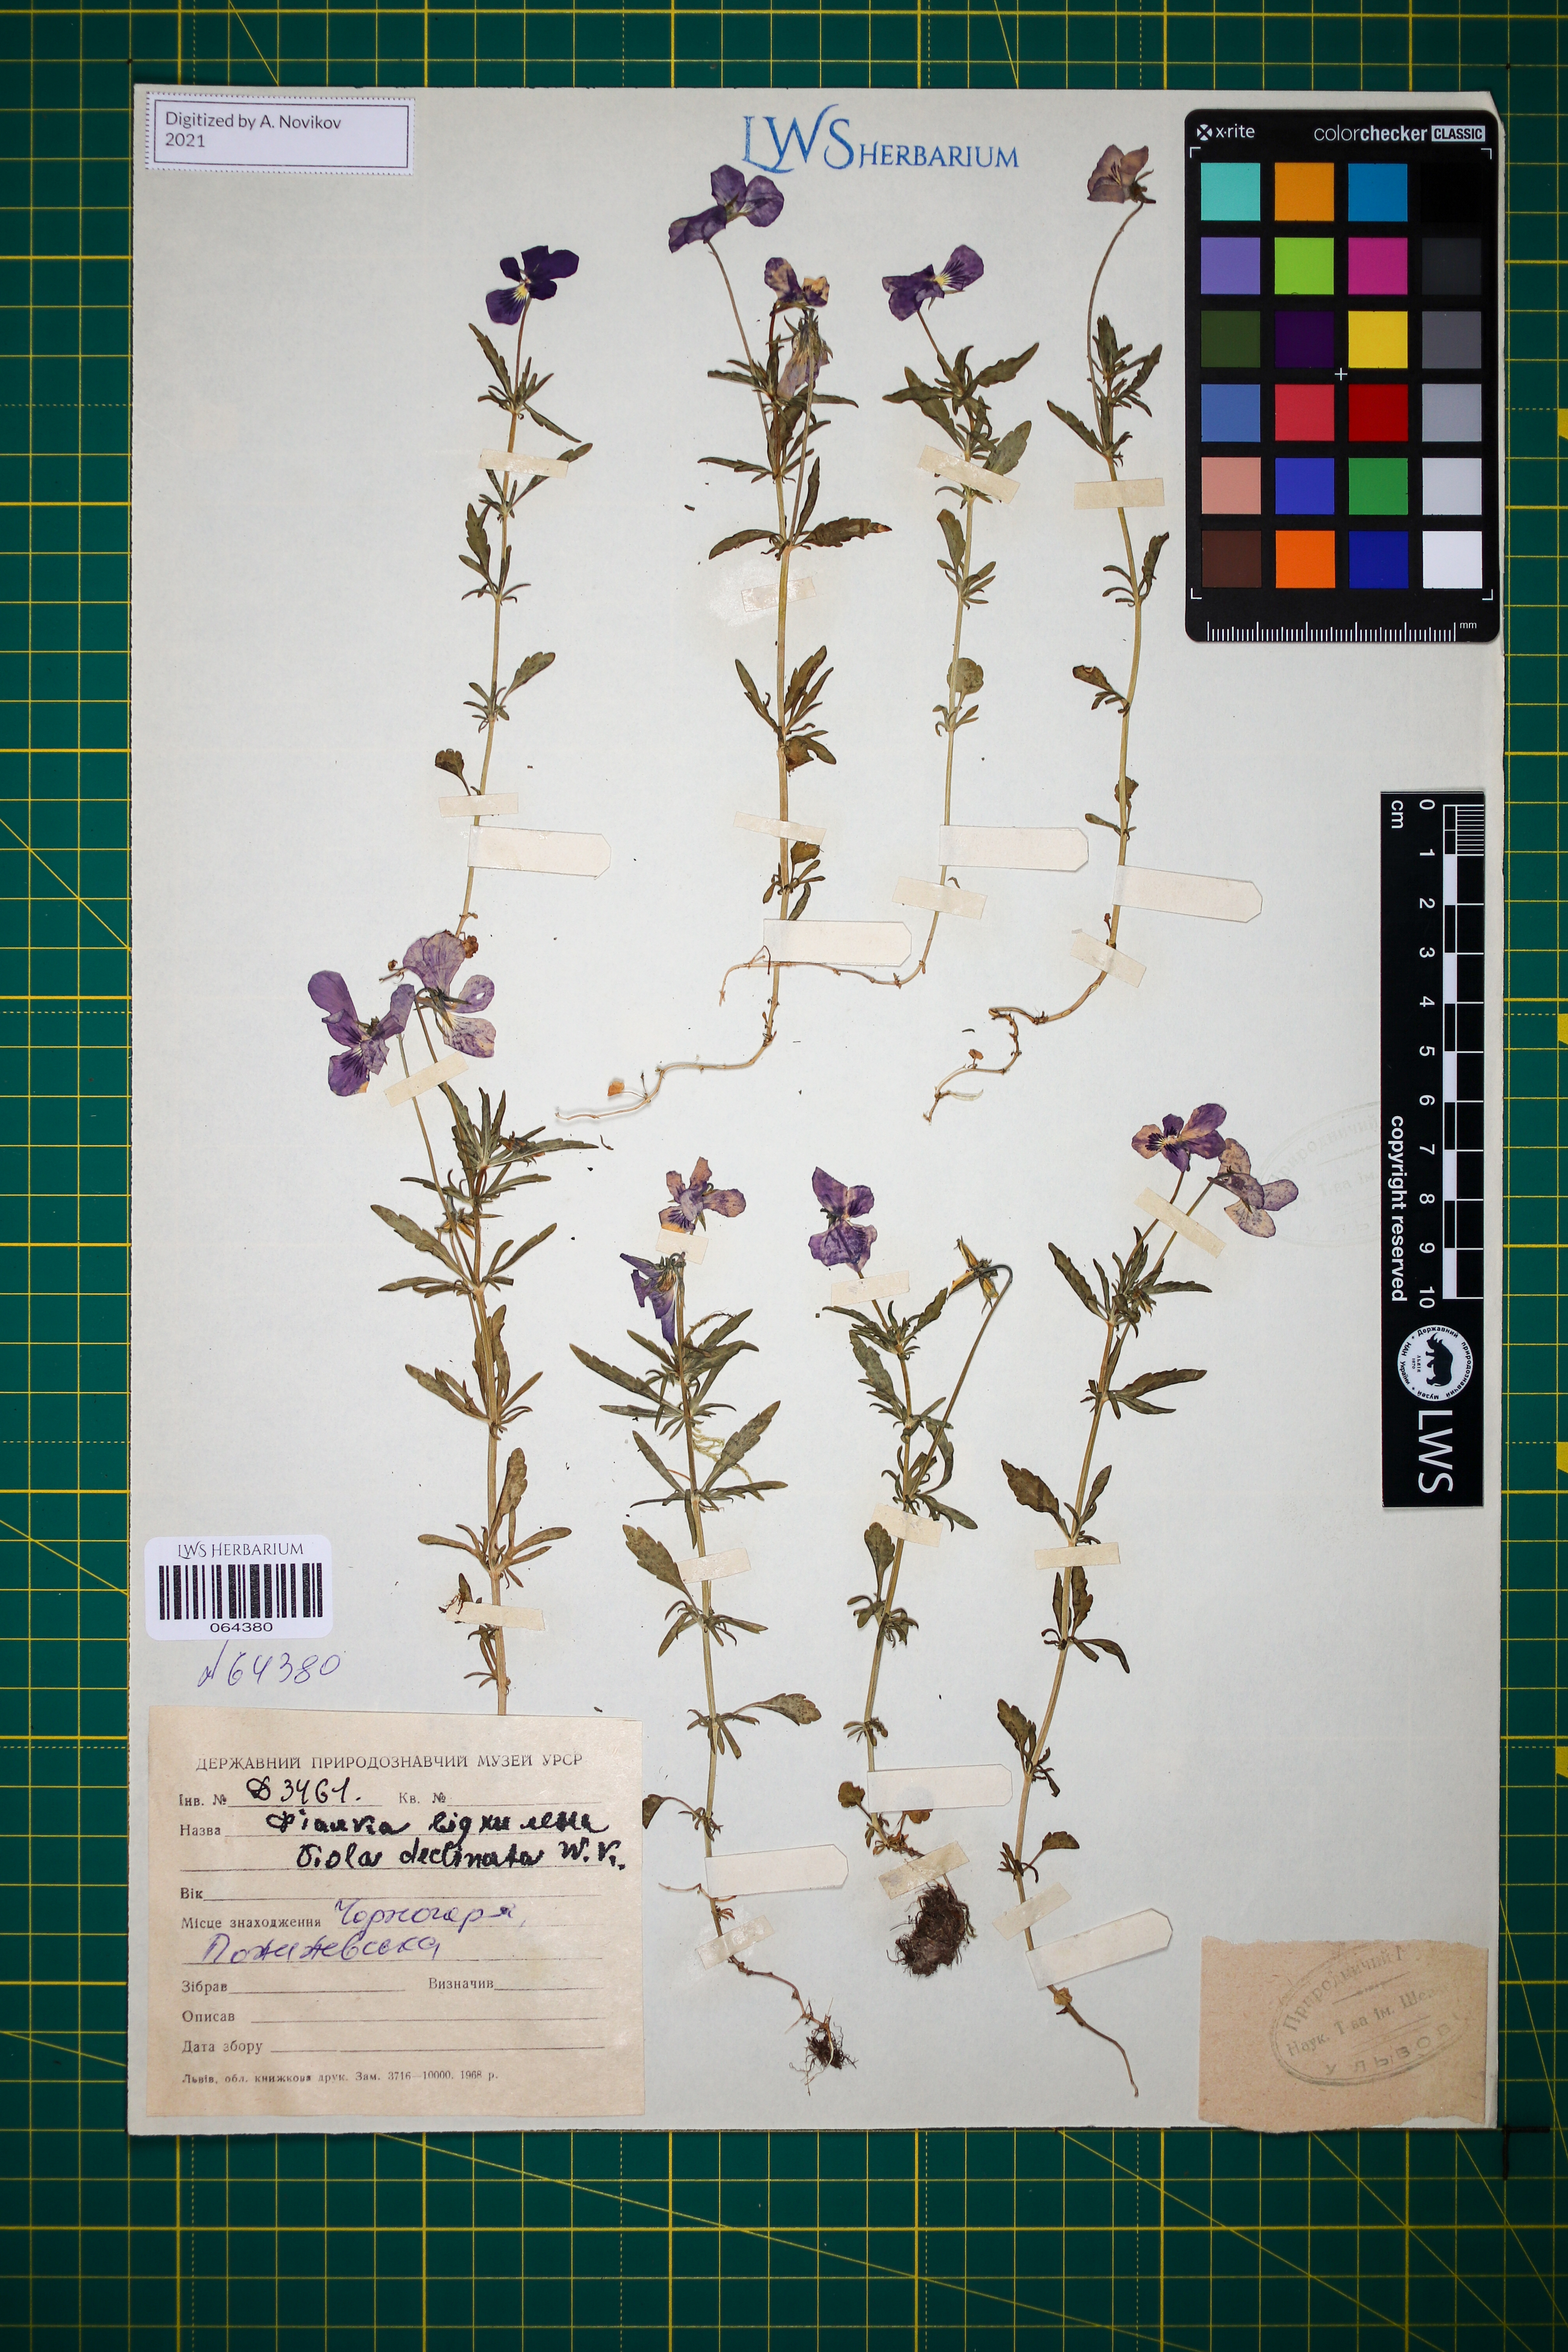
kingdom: Plantae
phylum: Tracheophyta
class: Magnoliopsida
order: Malpighiales
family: Violaceae
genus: Viola
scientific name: Viola declinata
